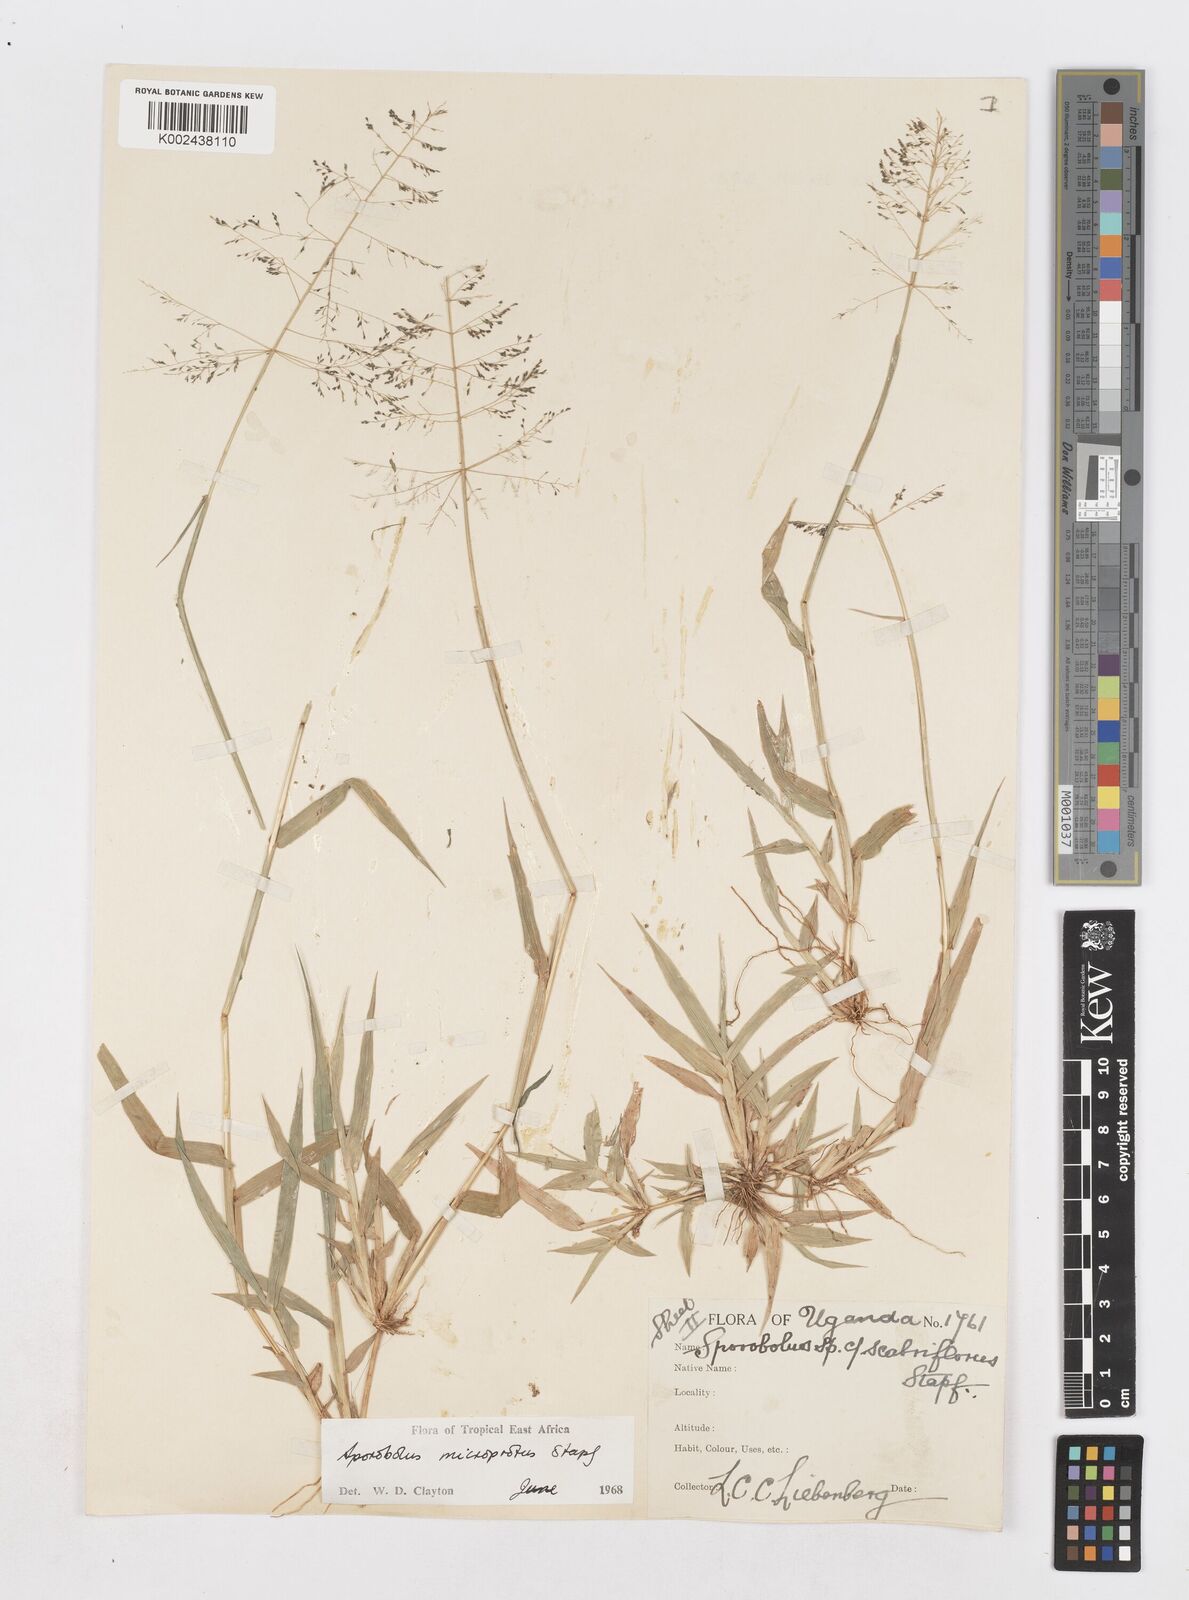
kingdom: Plantae
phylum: Tracheophyta
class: Liliopsida
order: Poales
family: Poaceae
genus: Sporobolus
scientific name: Sporobolus microprotus
